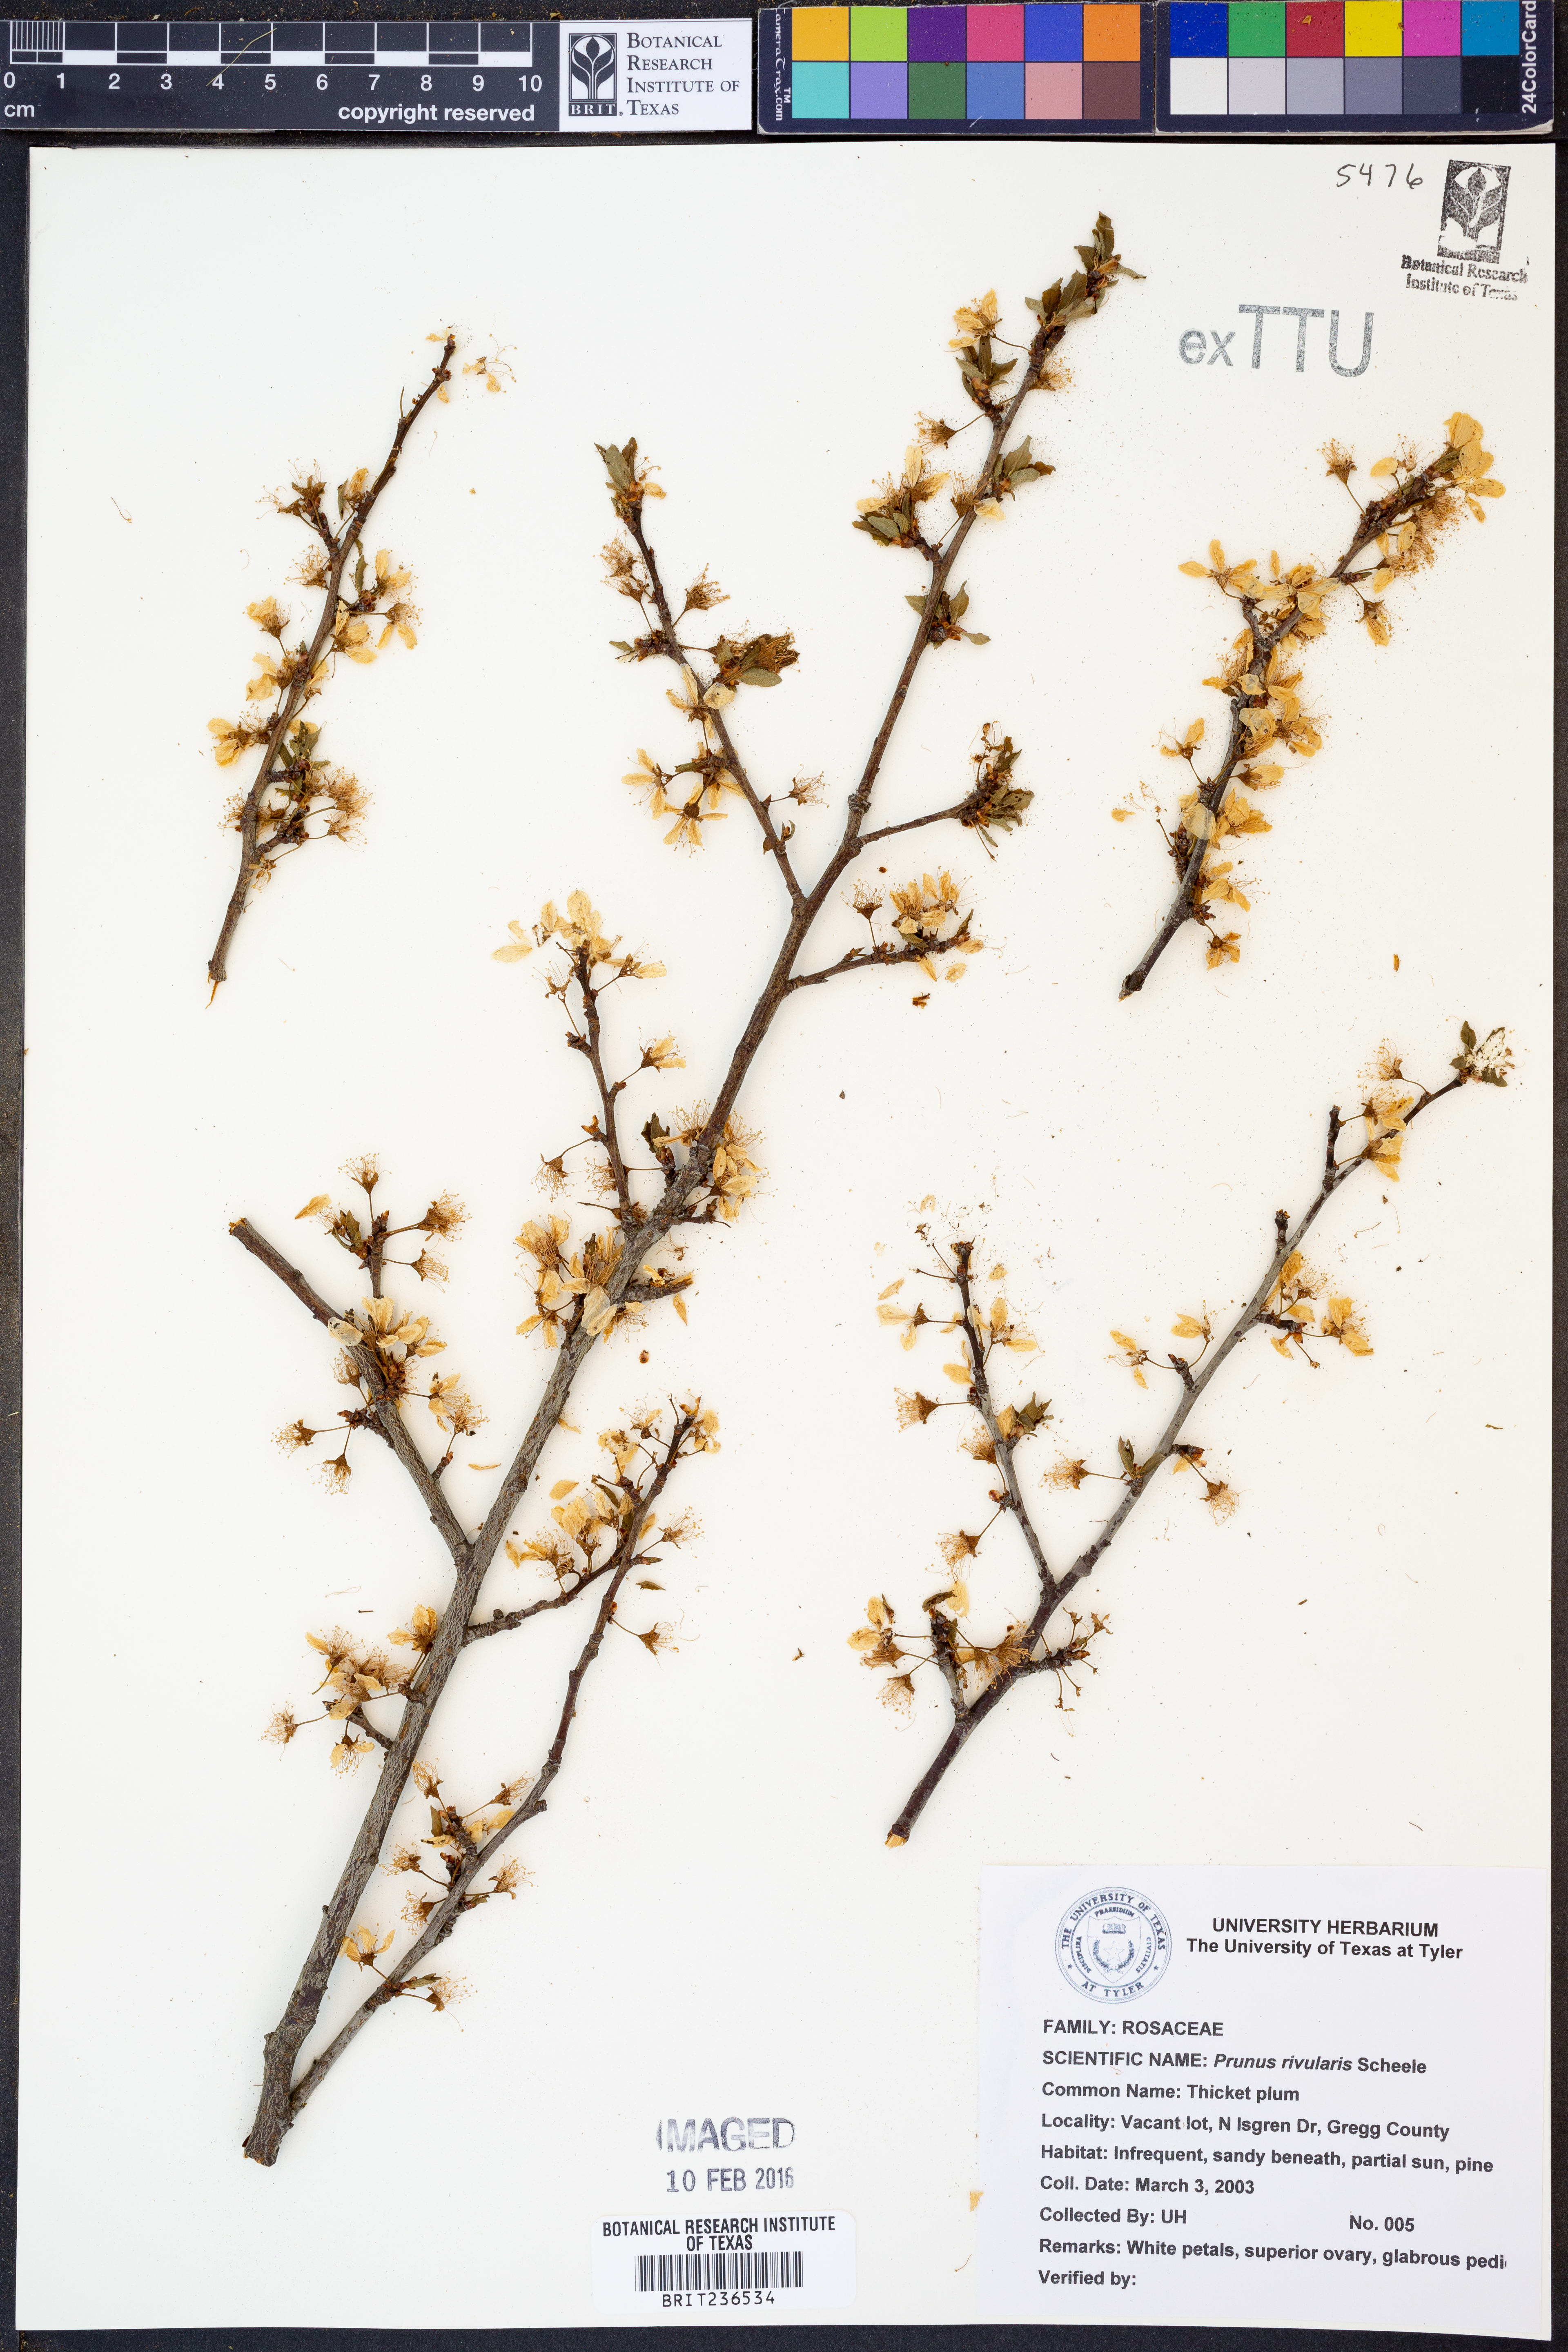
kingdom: Plantae
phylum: Tracheophyta
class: Magnoliopsida
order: Rosales
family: Rosaceae
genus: Prunus
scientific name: Prunus rivularis
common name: Creek plum
